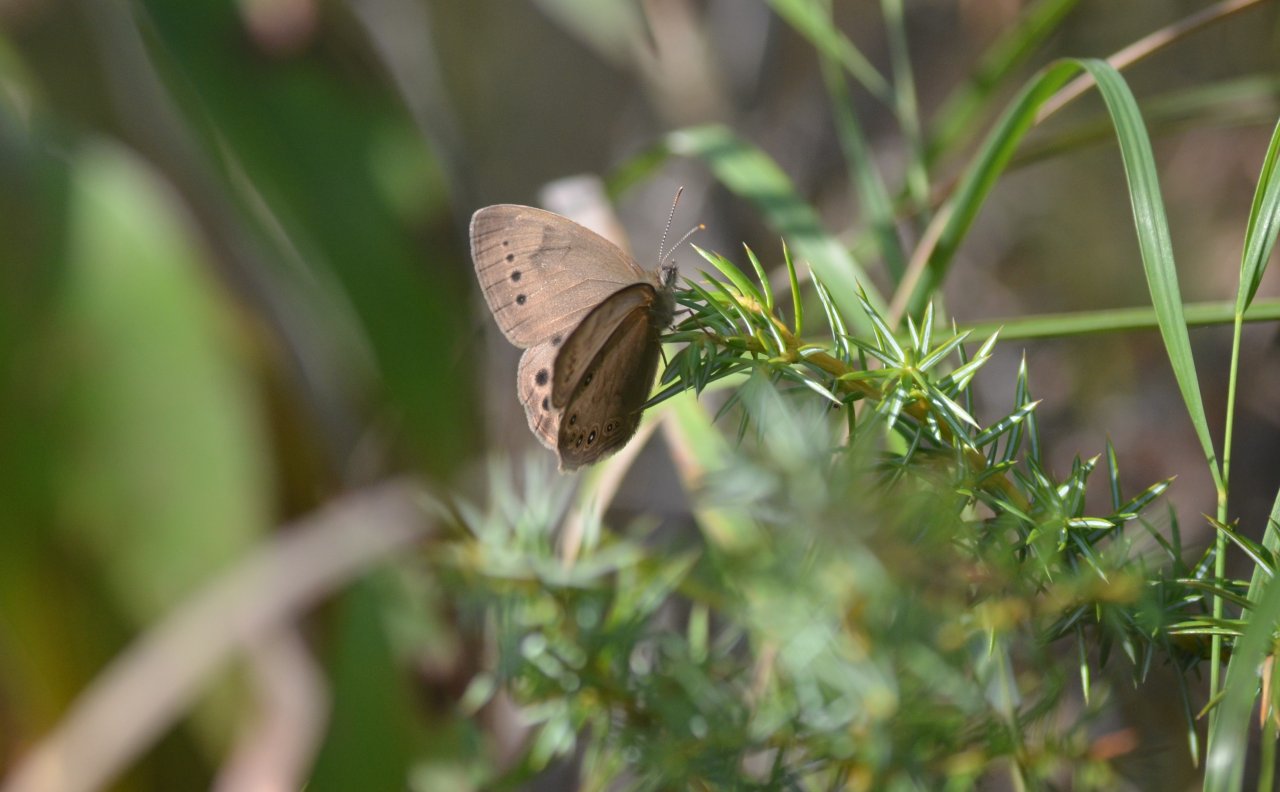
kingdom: Animalia
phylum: Arthropoda
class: Insecta
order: Lepidoptera
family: Nymphalidae
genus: Lethe
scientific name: Lethe
